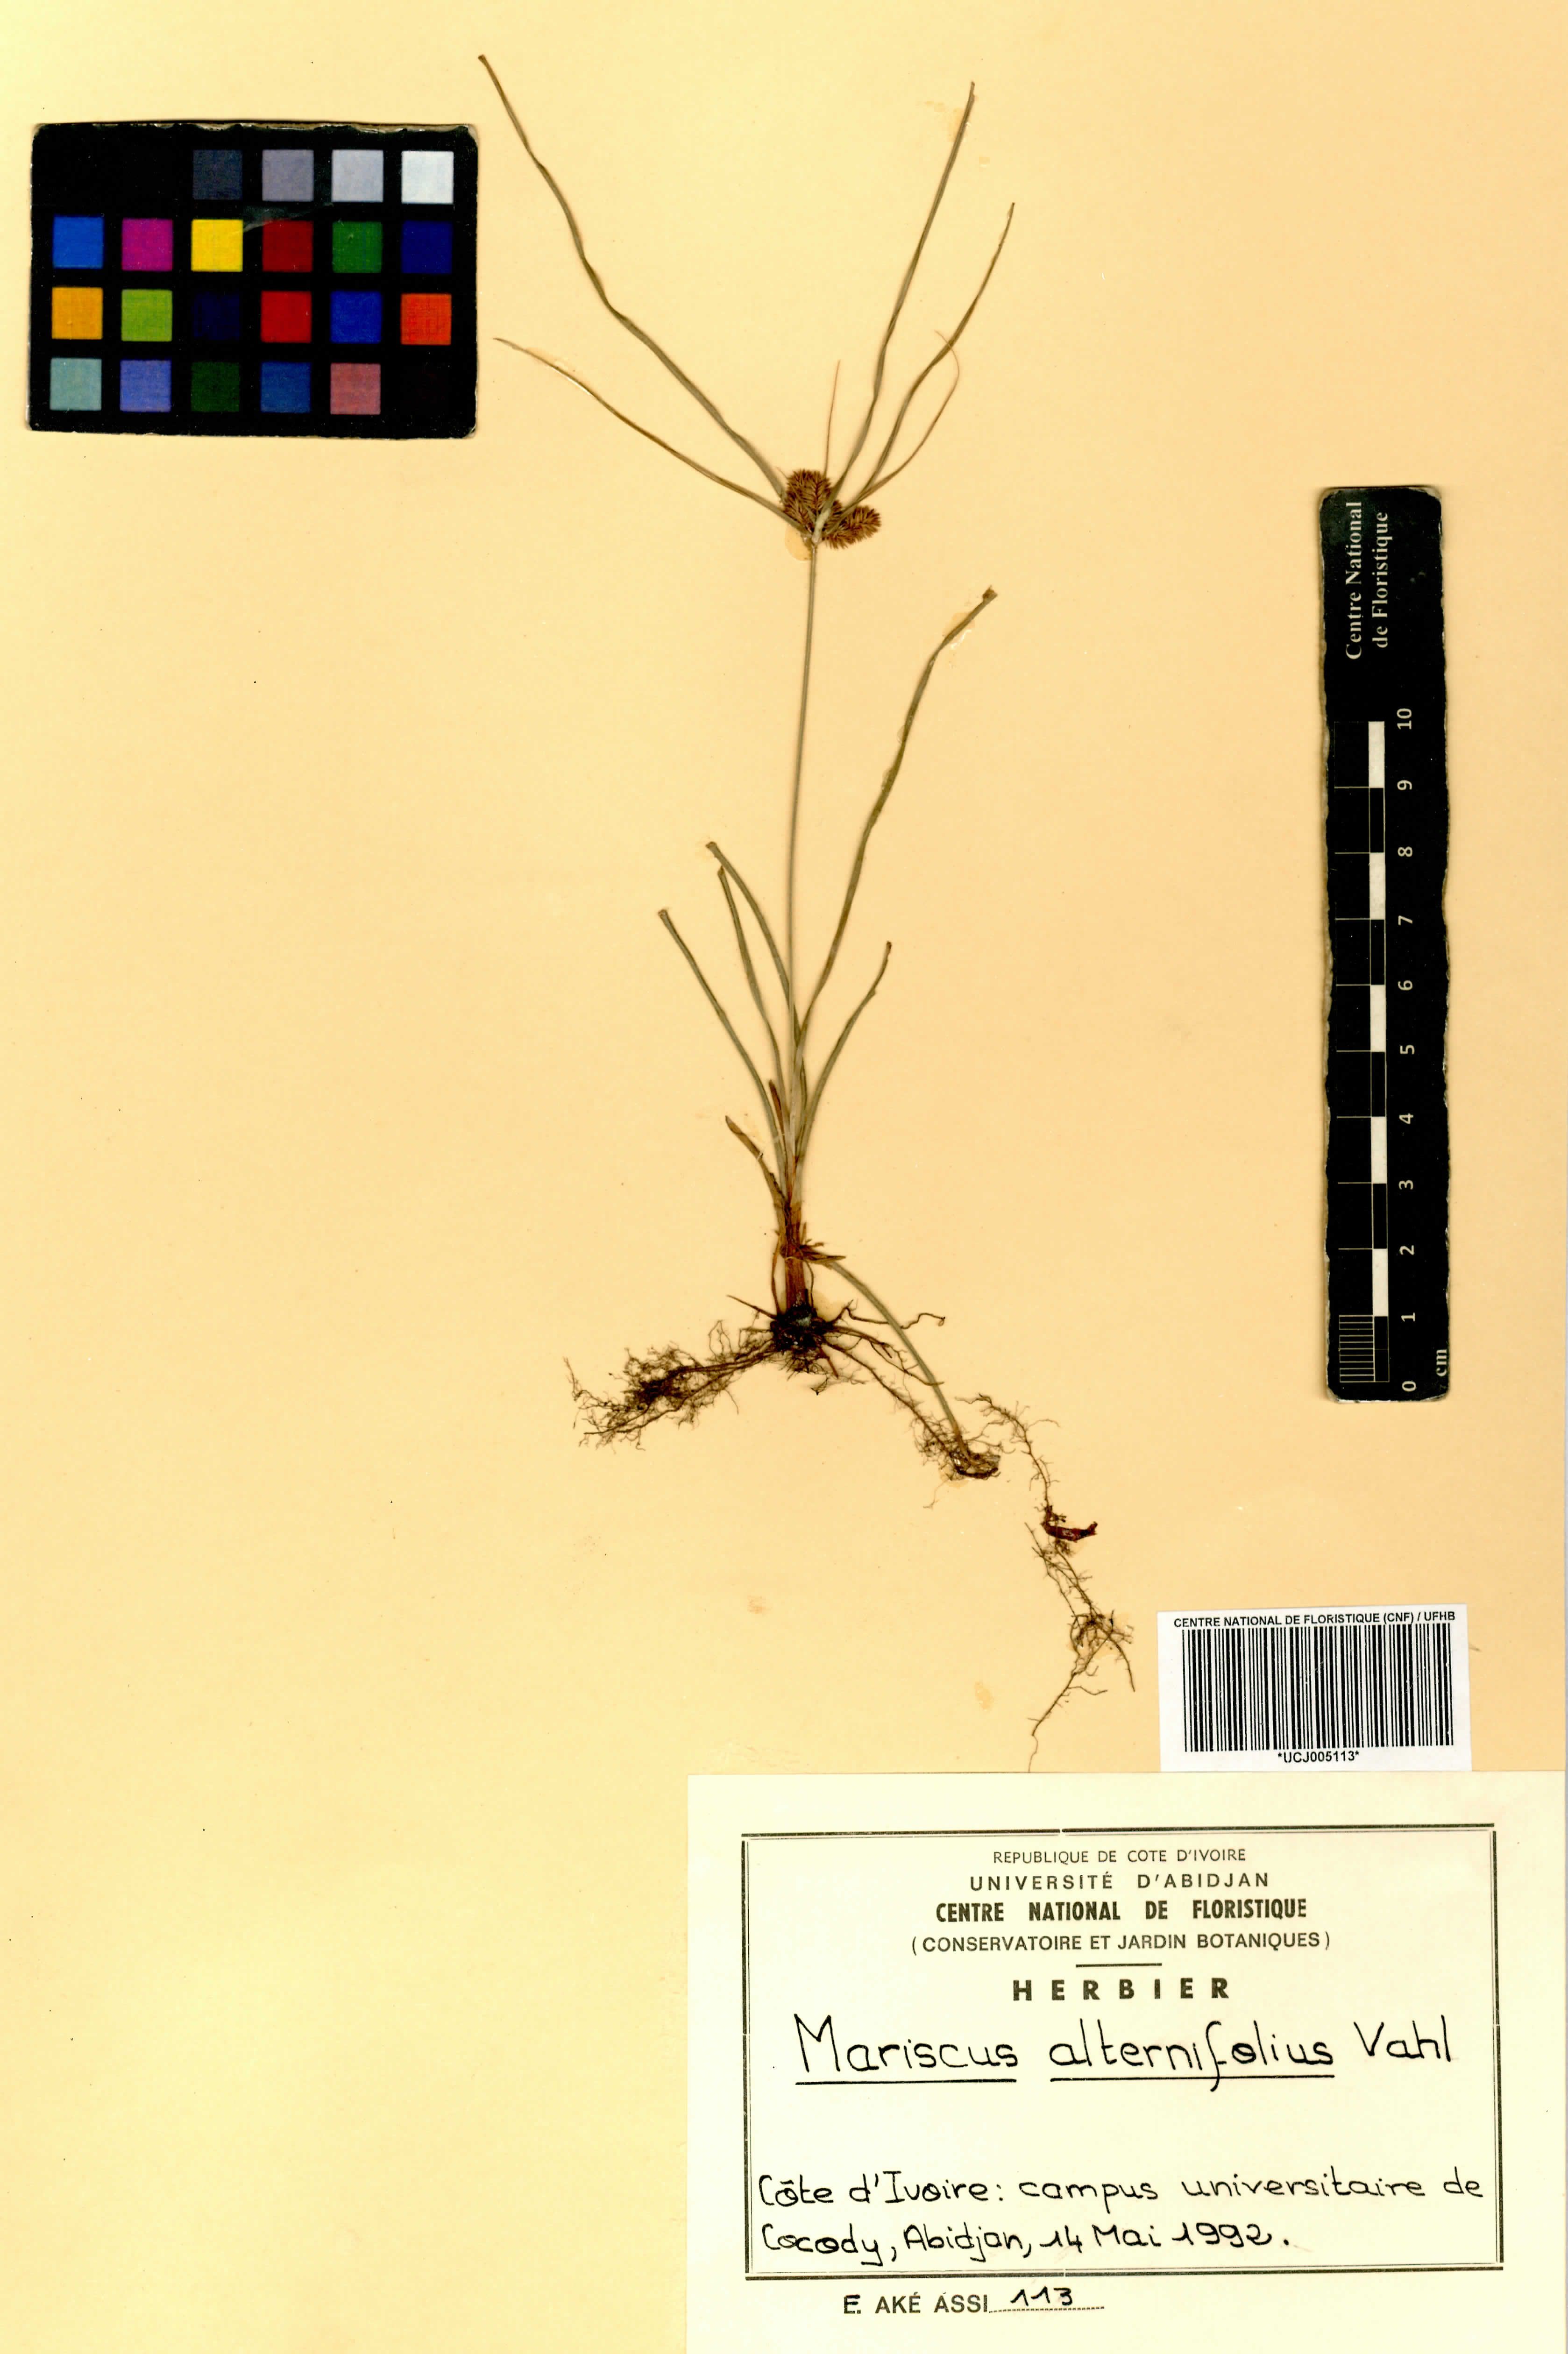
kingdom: Plantae
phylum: Tracheophyta
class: Liliopsida
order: Poales
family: Cyperaceae
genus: Cyperus
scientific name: Cyperus cyperoides
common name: Pacific island flat sedge
